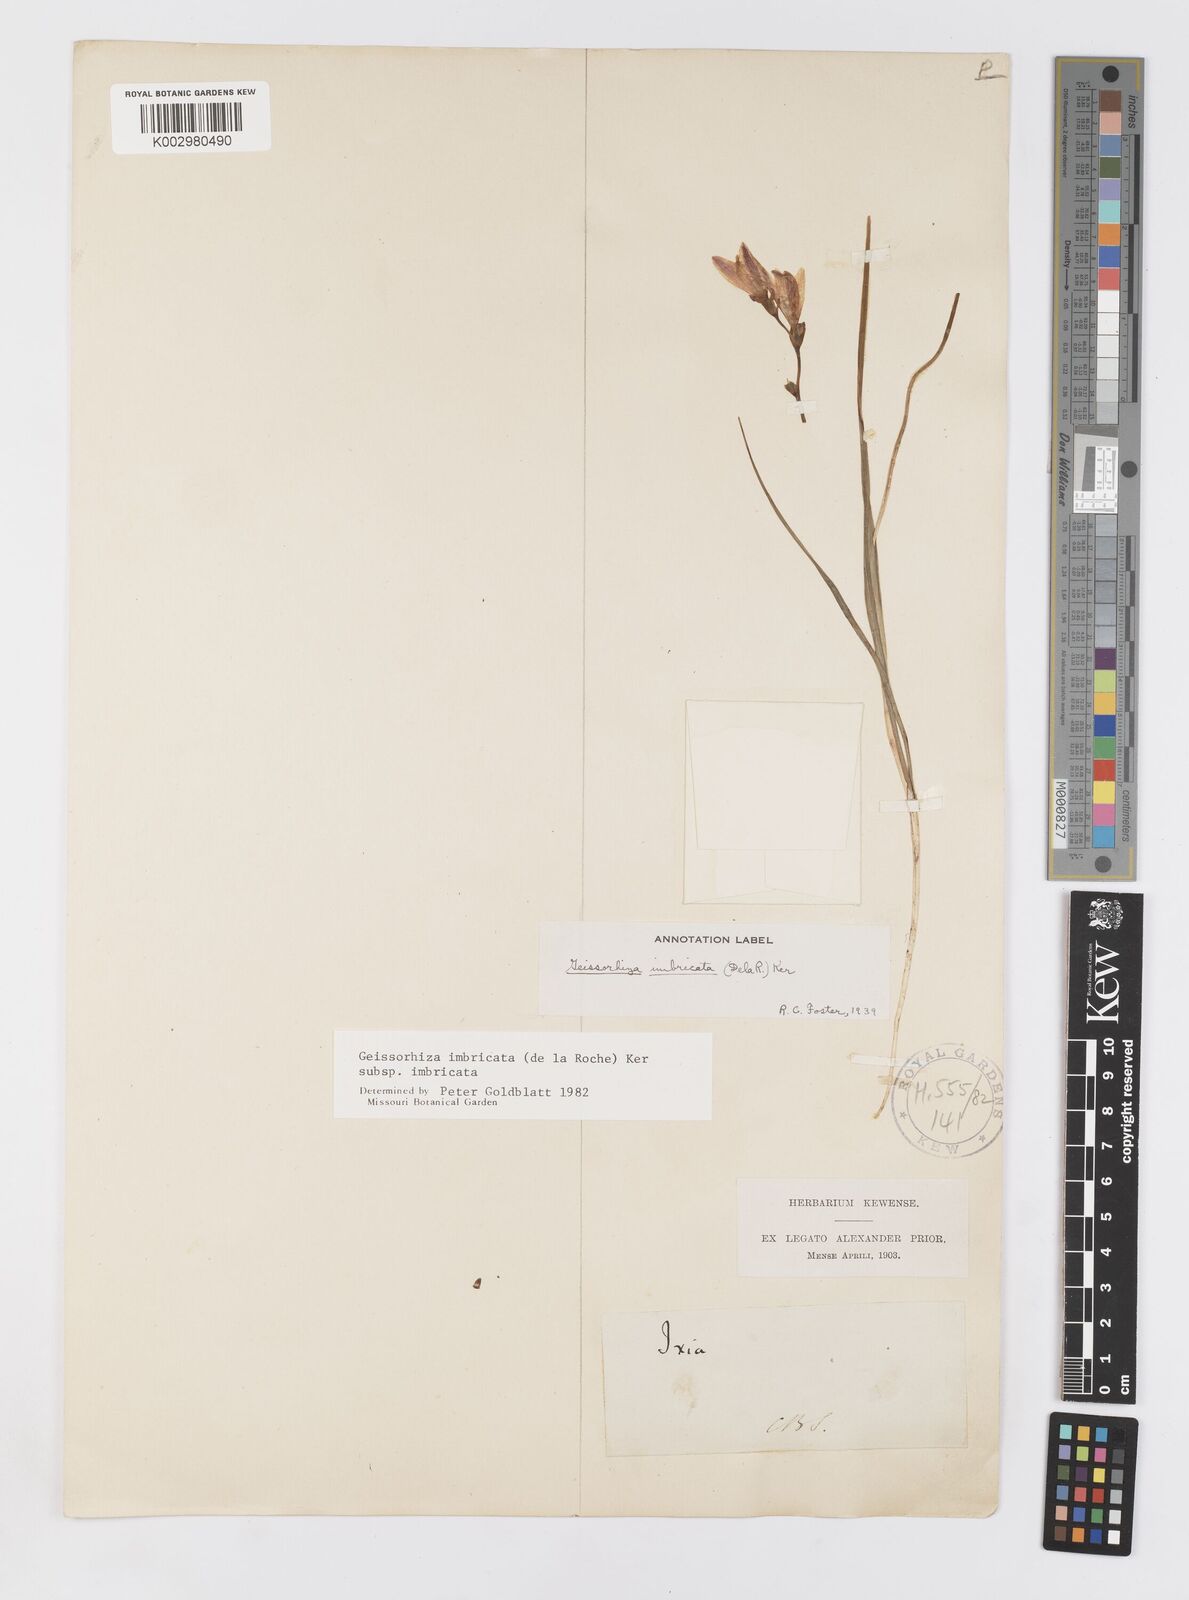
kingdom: Plantae
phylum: Tracheophyta
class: Liliopsida
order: Asparagales
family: Iridaceae
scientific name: Iridaceae
